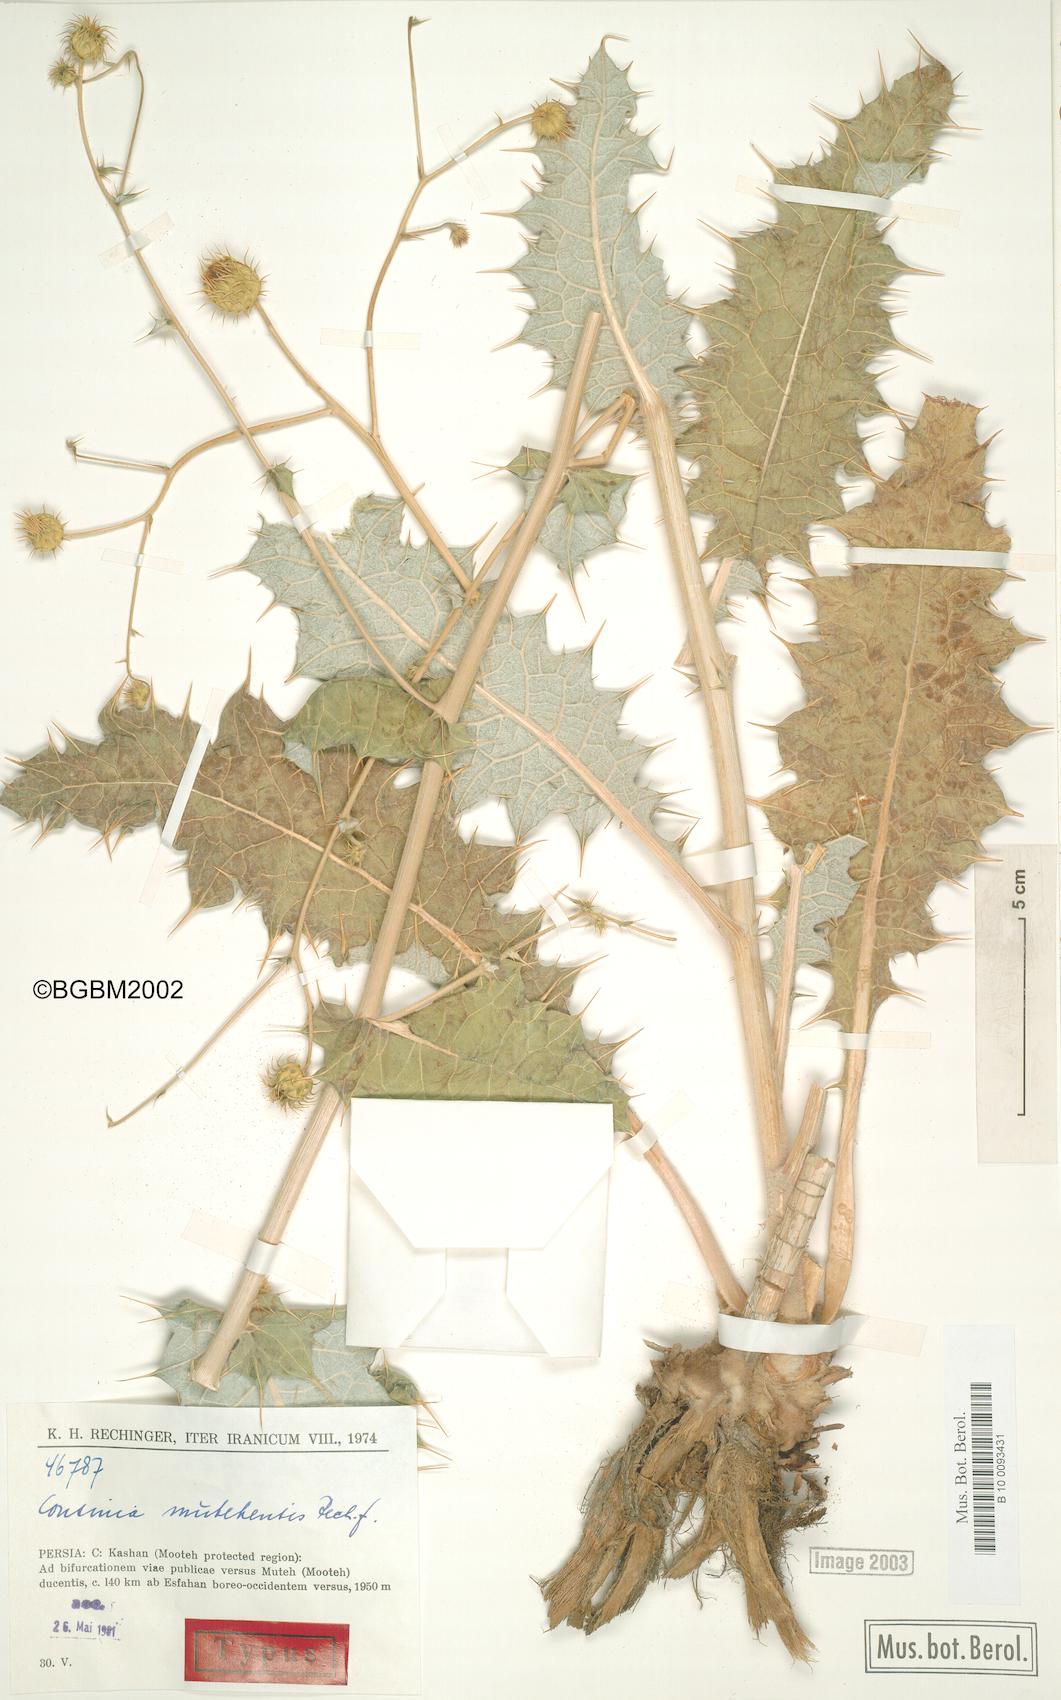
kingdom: Plantae
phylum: Tracheophyta
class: Magnoliopsida
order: Asterales
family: Asteraceae
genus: Cousinia
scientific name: Cousinia mutehensis
